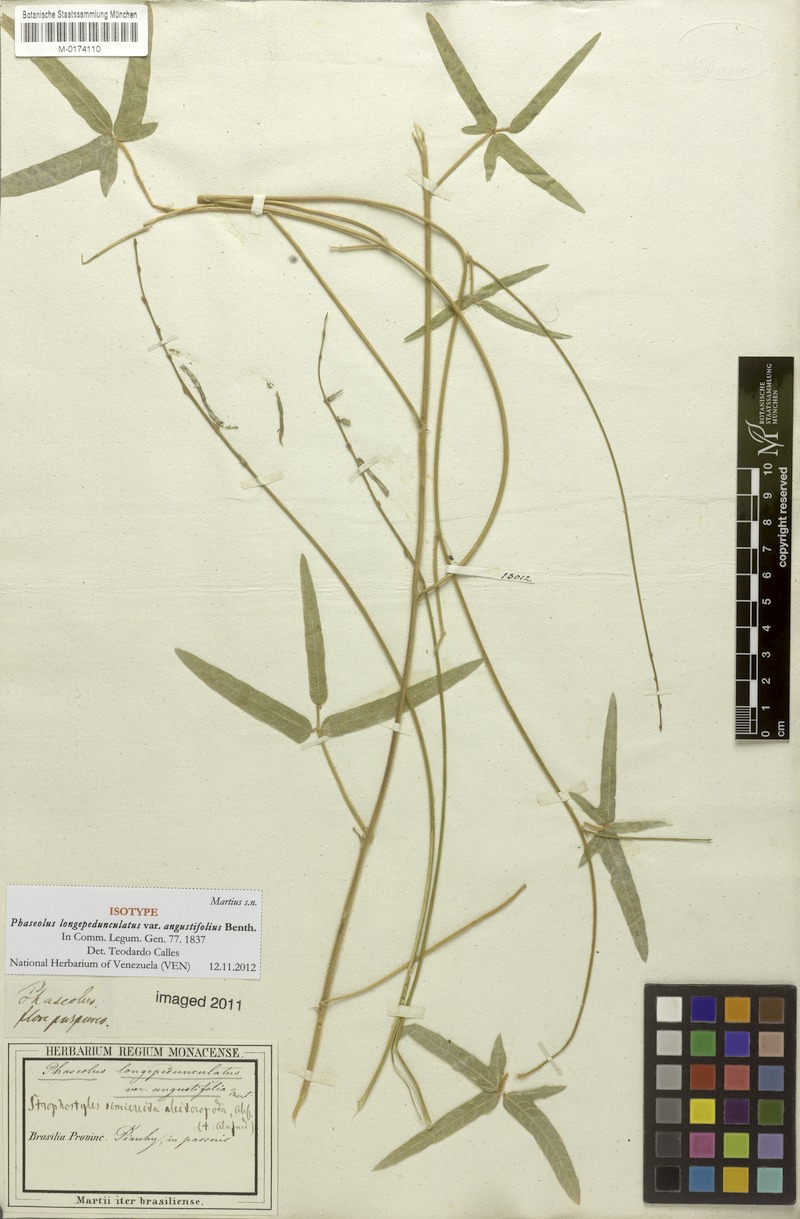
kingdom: Plantae
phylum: Tracheophyta
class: Magnoliopsida
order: Fabales
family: Fabaceae
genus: Macroptilium
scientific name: Macroptilium gracile
